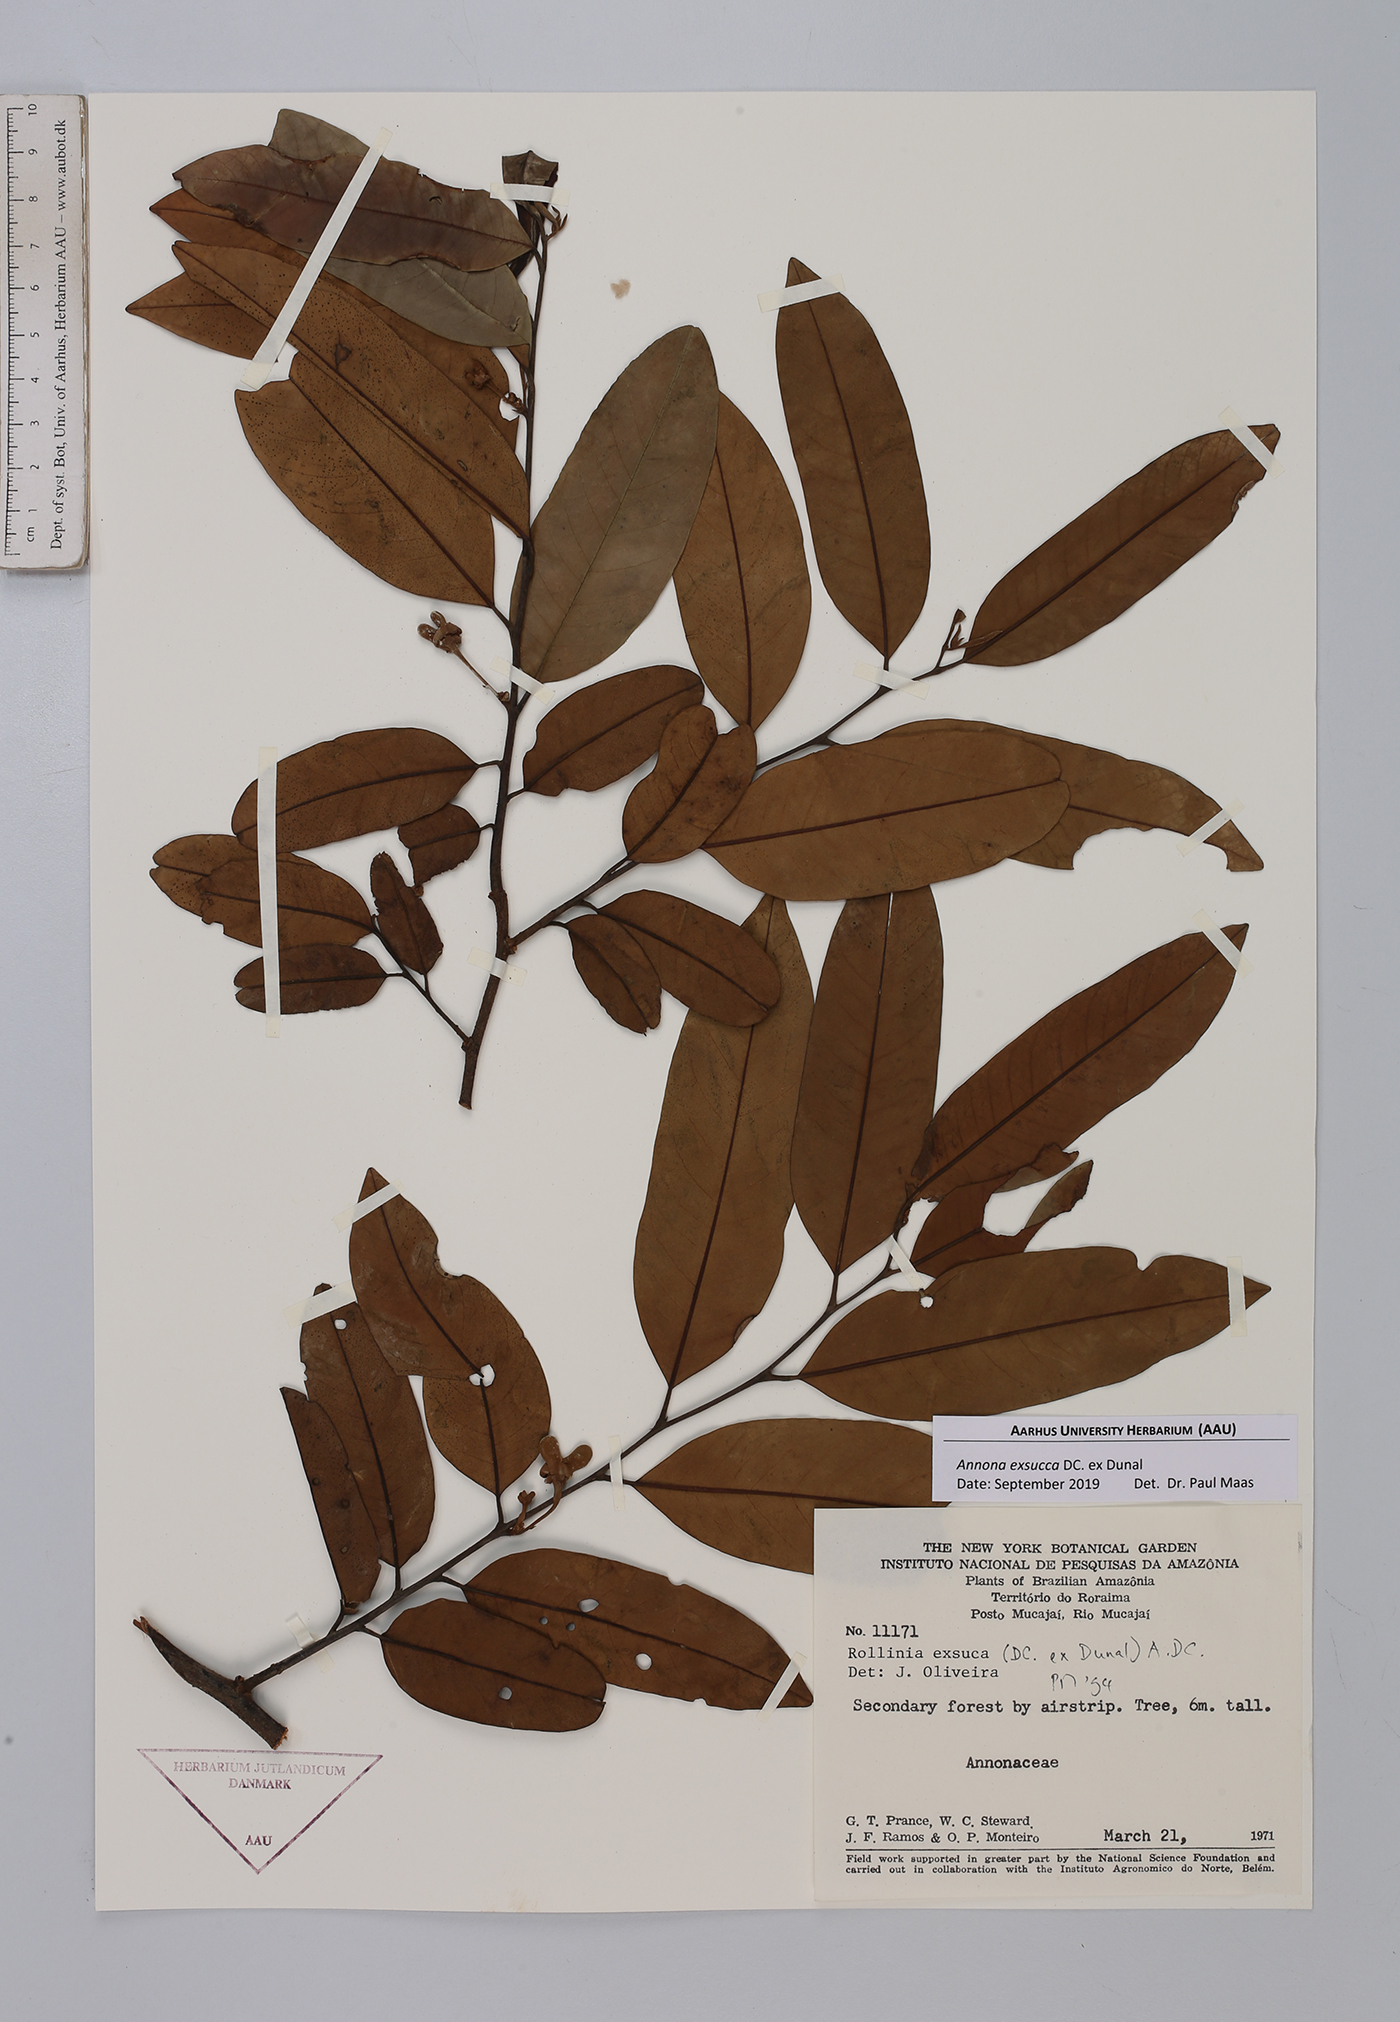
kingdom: Plantae
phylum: Tracheophyta
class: Magnoliopsida
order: Magnoliales
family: Annonaceae
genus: Annona
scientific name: Annona exsucca
